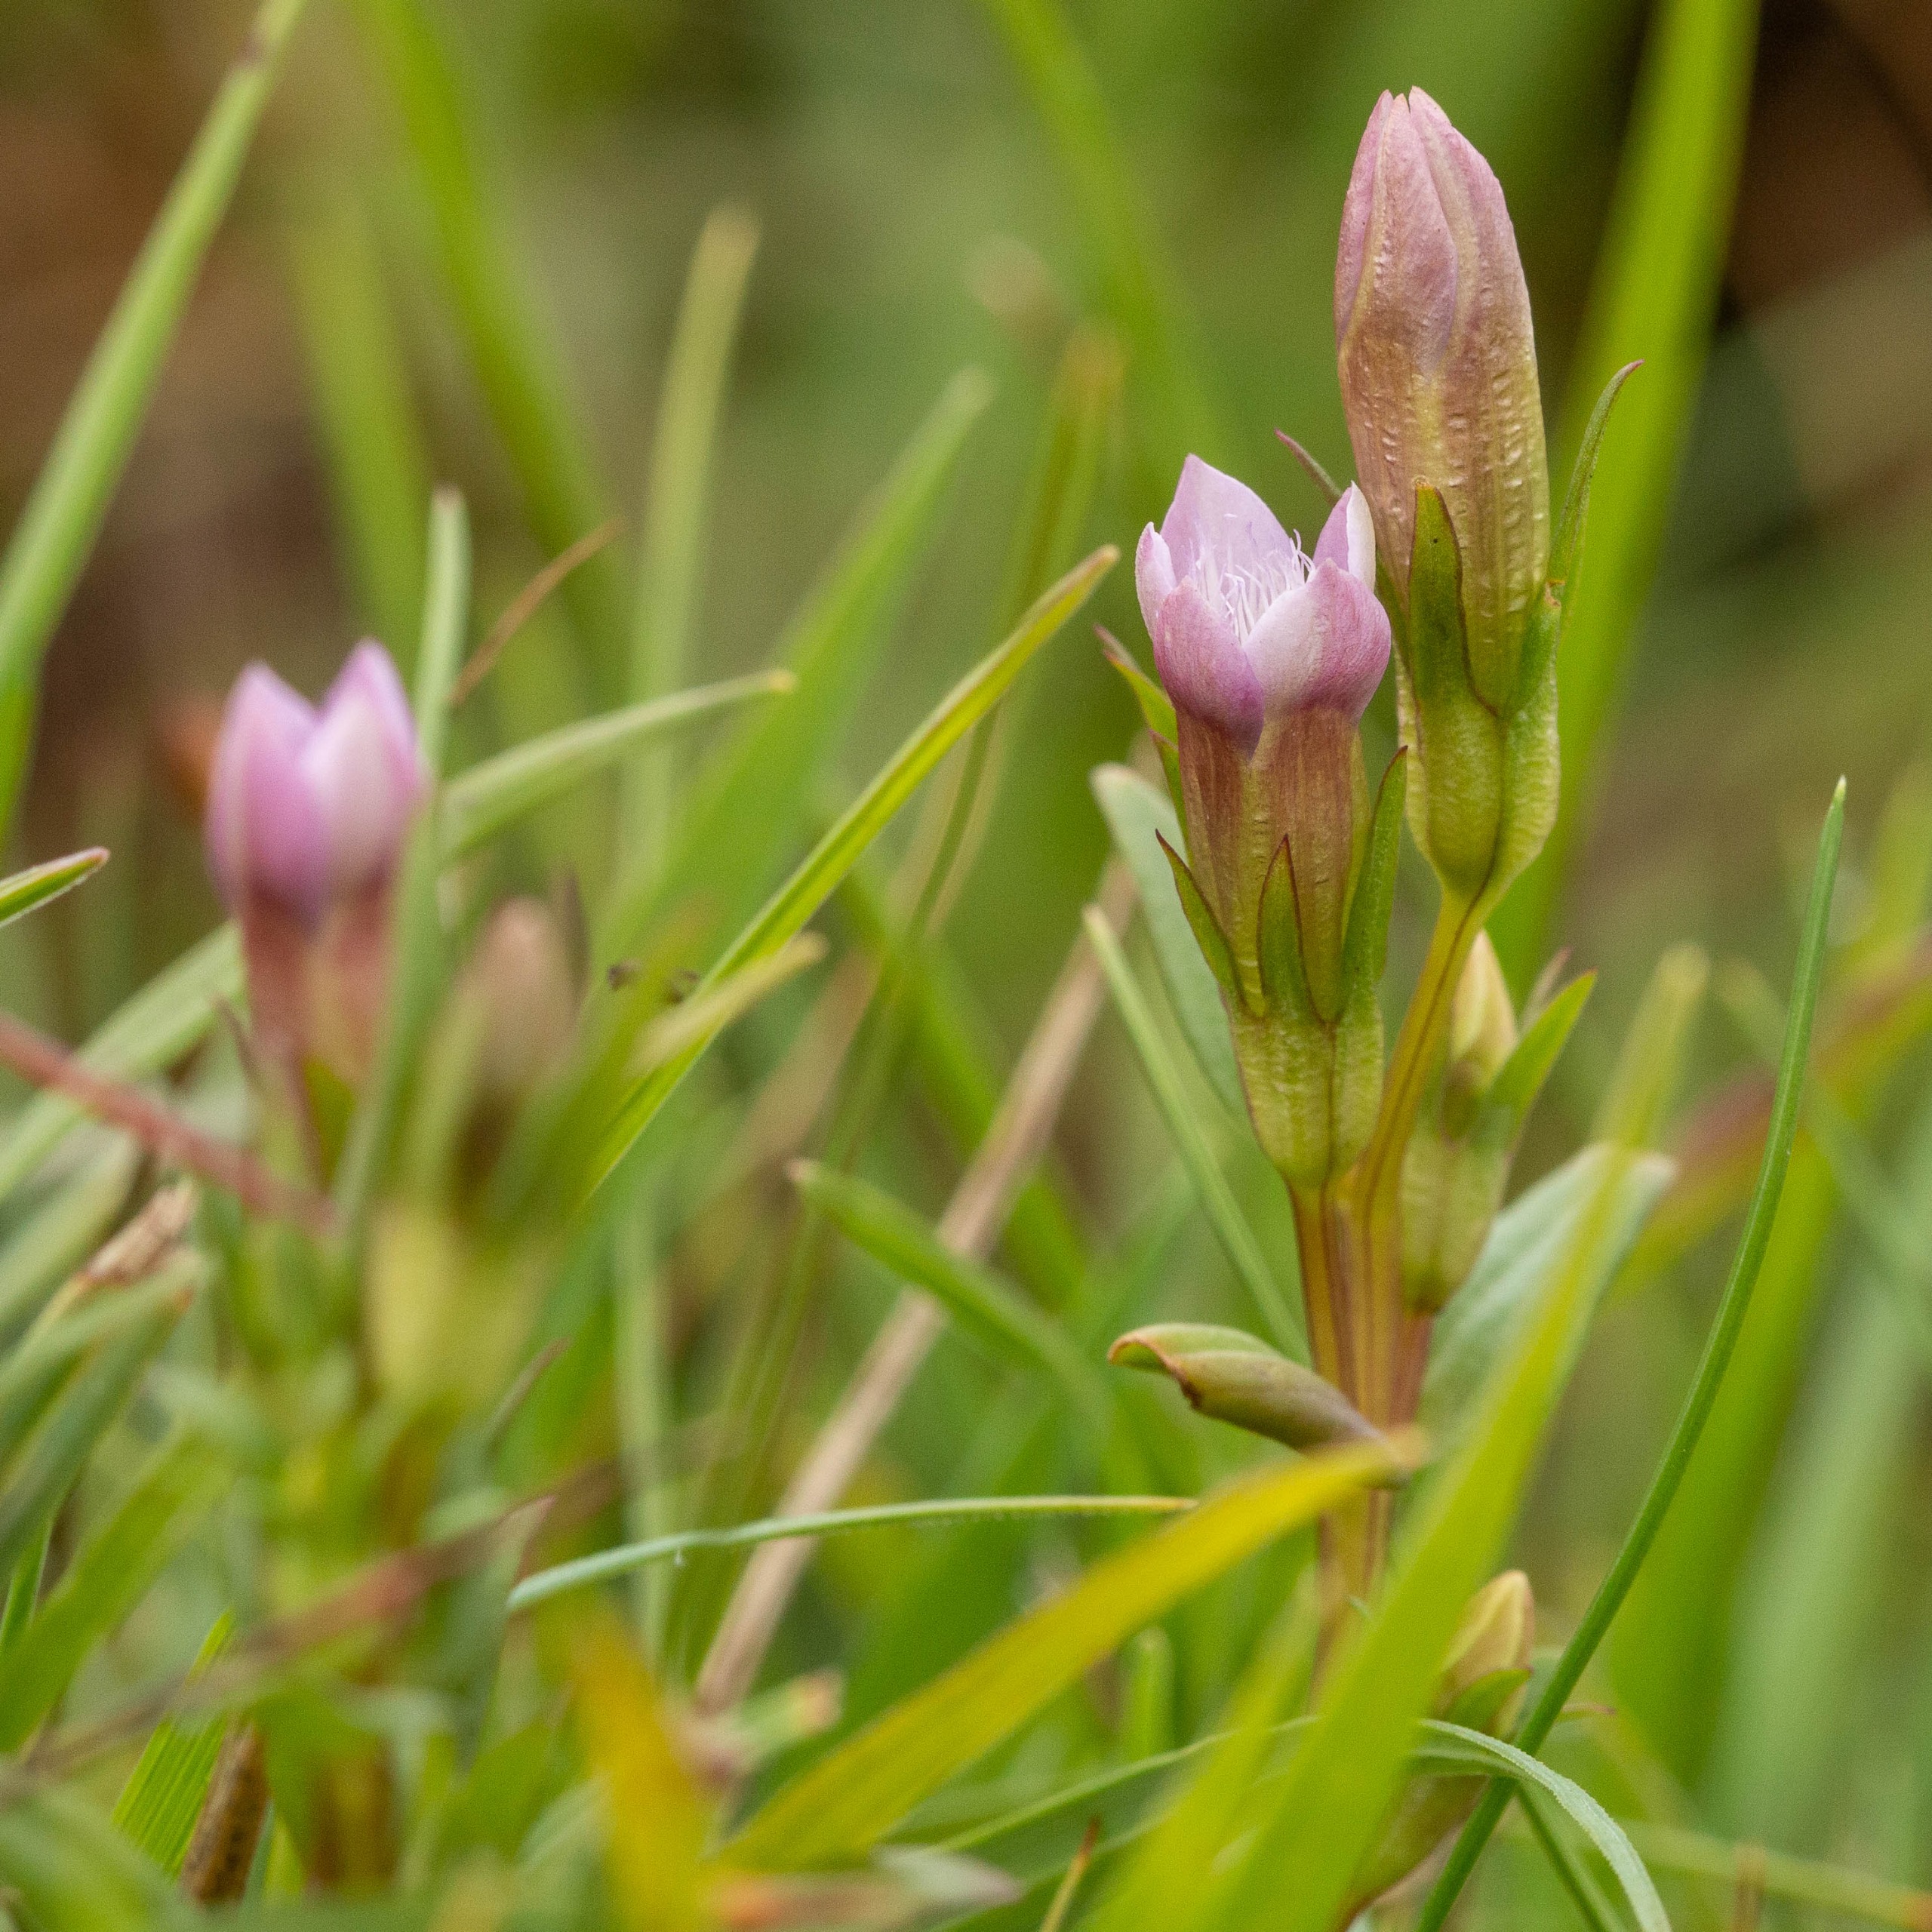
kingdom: Plantae
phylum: Tracheophyta
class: Magnoliopsida
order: Gentianales
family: Gentianaceae
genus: Gentianella
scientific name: Gentianella uliginosa
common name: Eng-ensian
